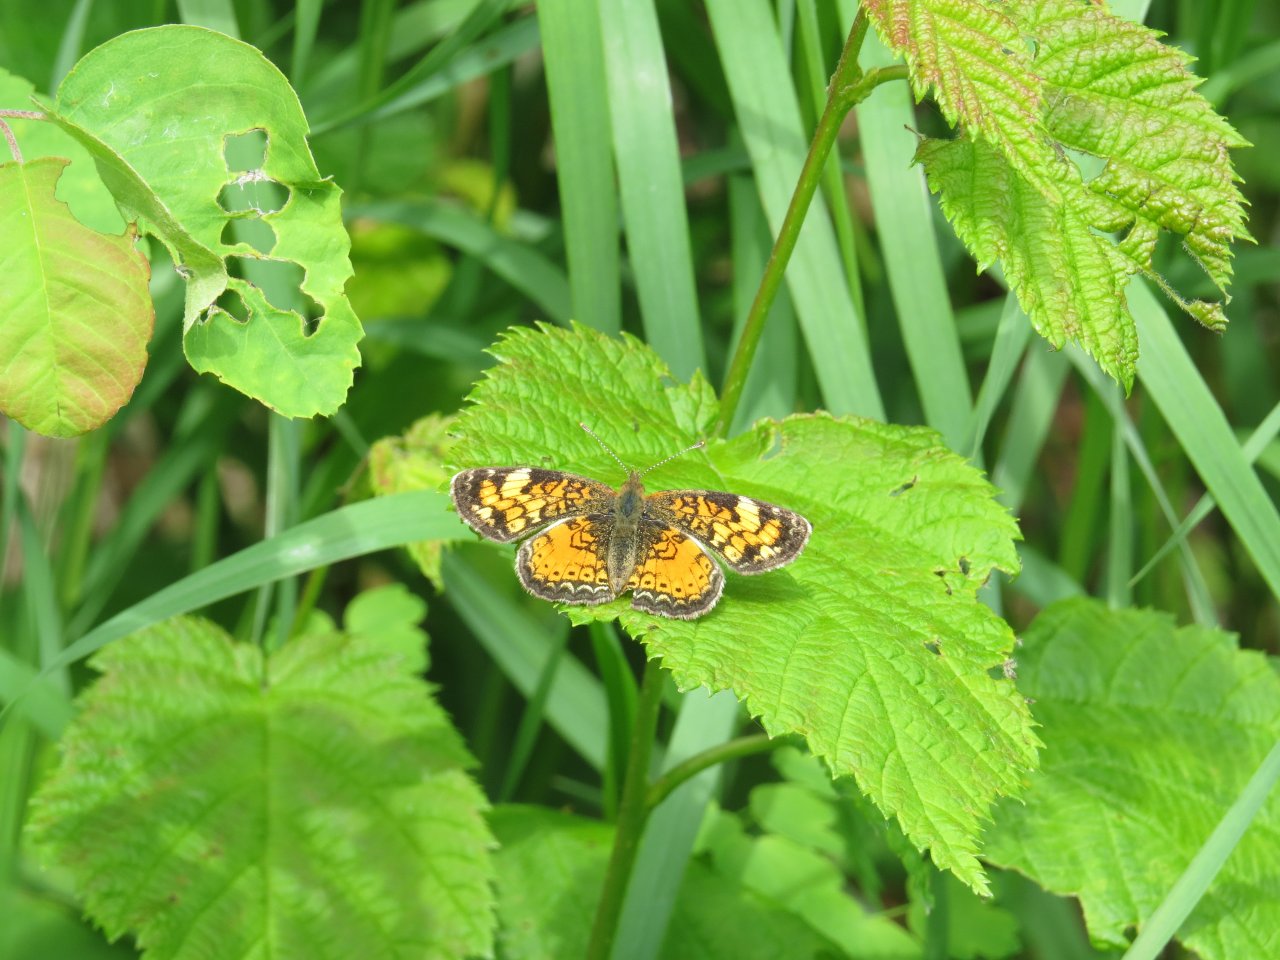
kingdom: Animalia
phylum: Arthropoda
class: Insecta
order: Lepidoptera
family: Nymphalidae
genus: Phyciodes
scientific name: Phyciodes batesii
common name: Tawny Crescent
